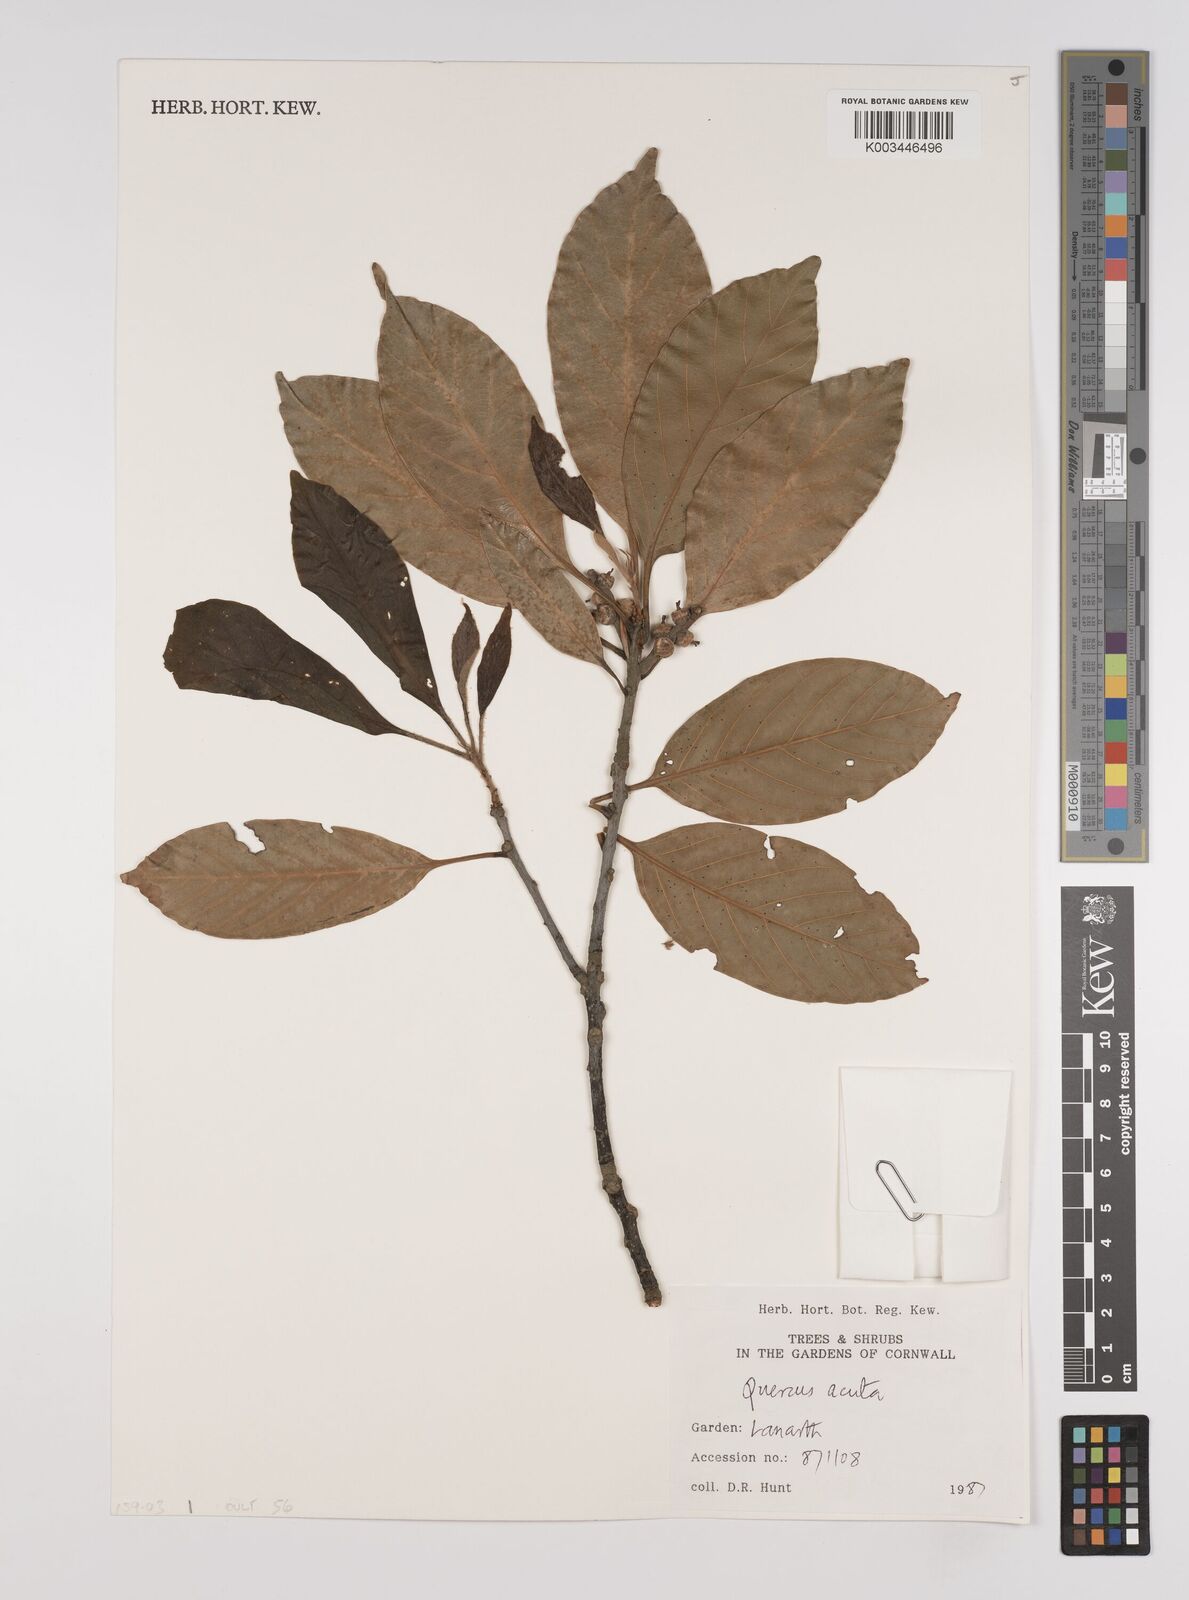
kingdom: Plantae
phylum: Tracheophyta
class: Magnoliopsida
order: Fagales
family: Fagaceae
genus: Quercus
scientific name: Quercus coccinea
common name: Scarlet oak
